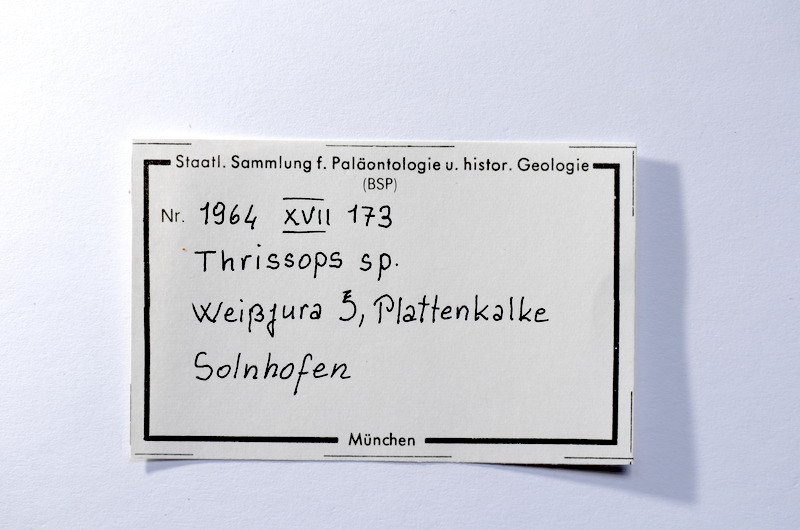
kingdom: Animalia
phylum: Chordata
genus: Thrissops
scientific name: Thrissops
